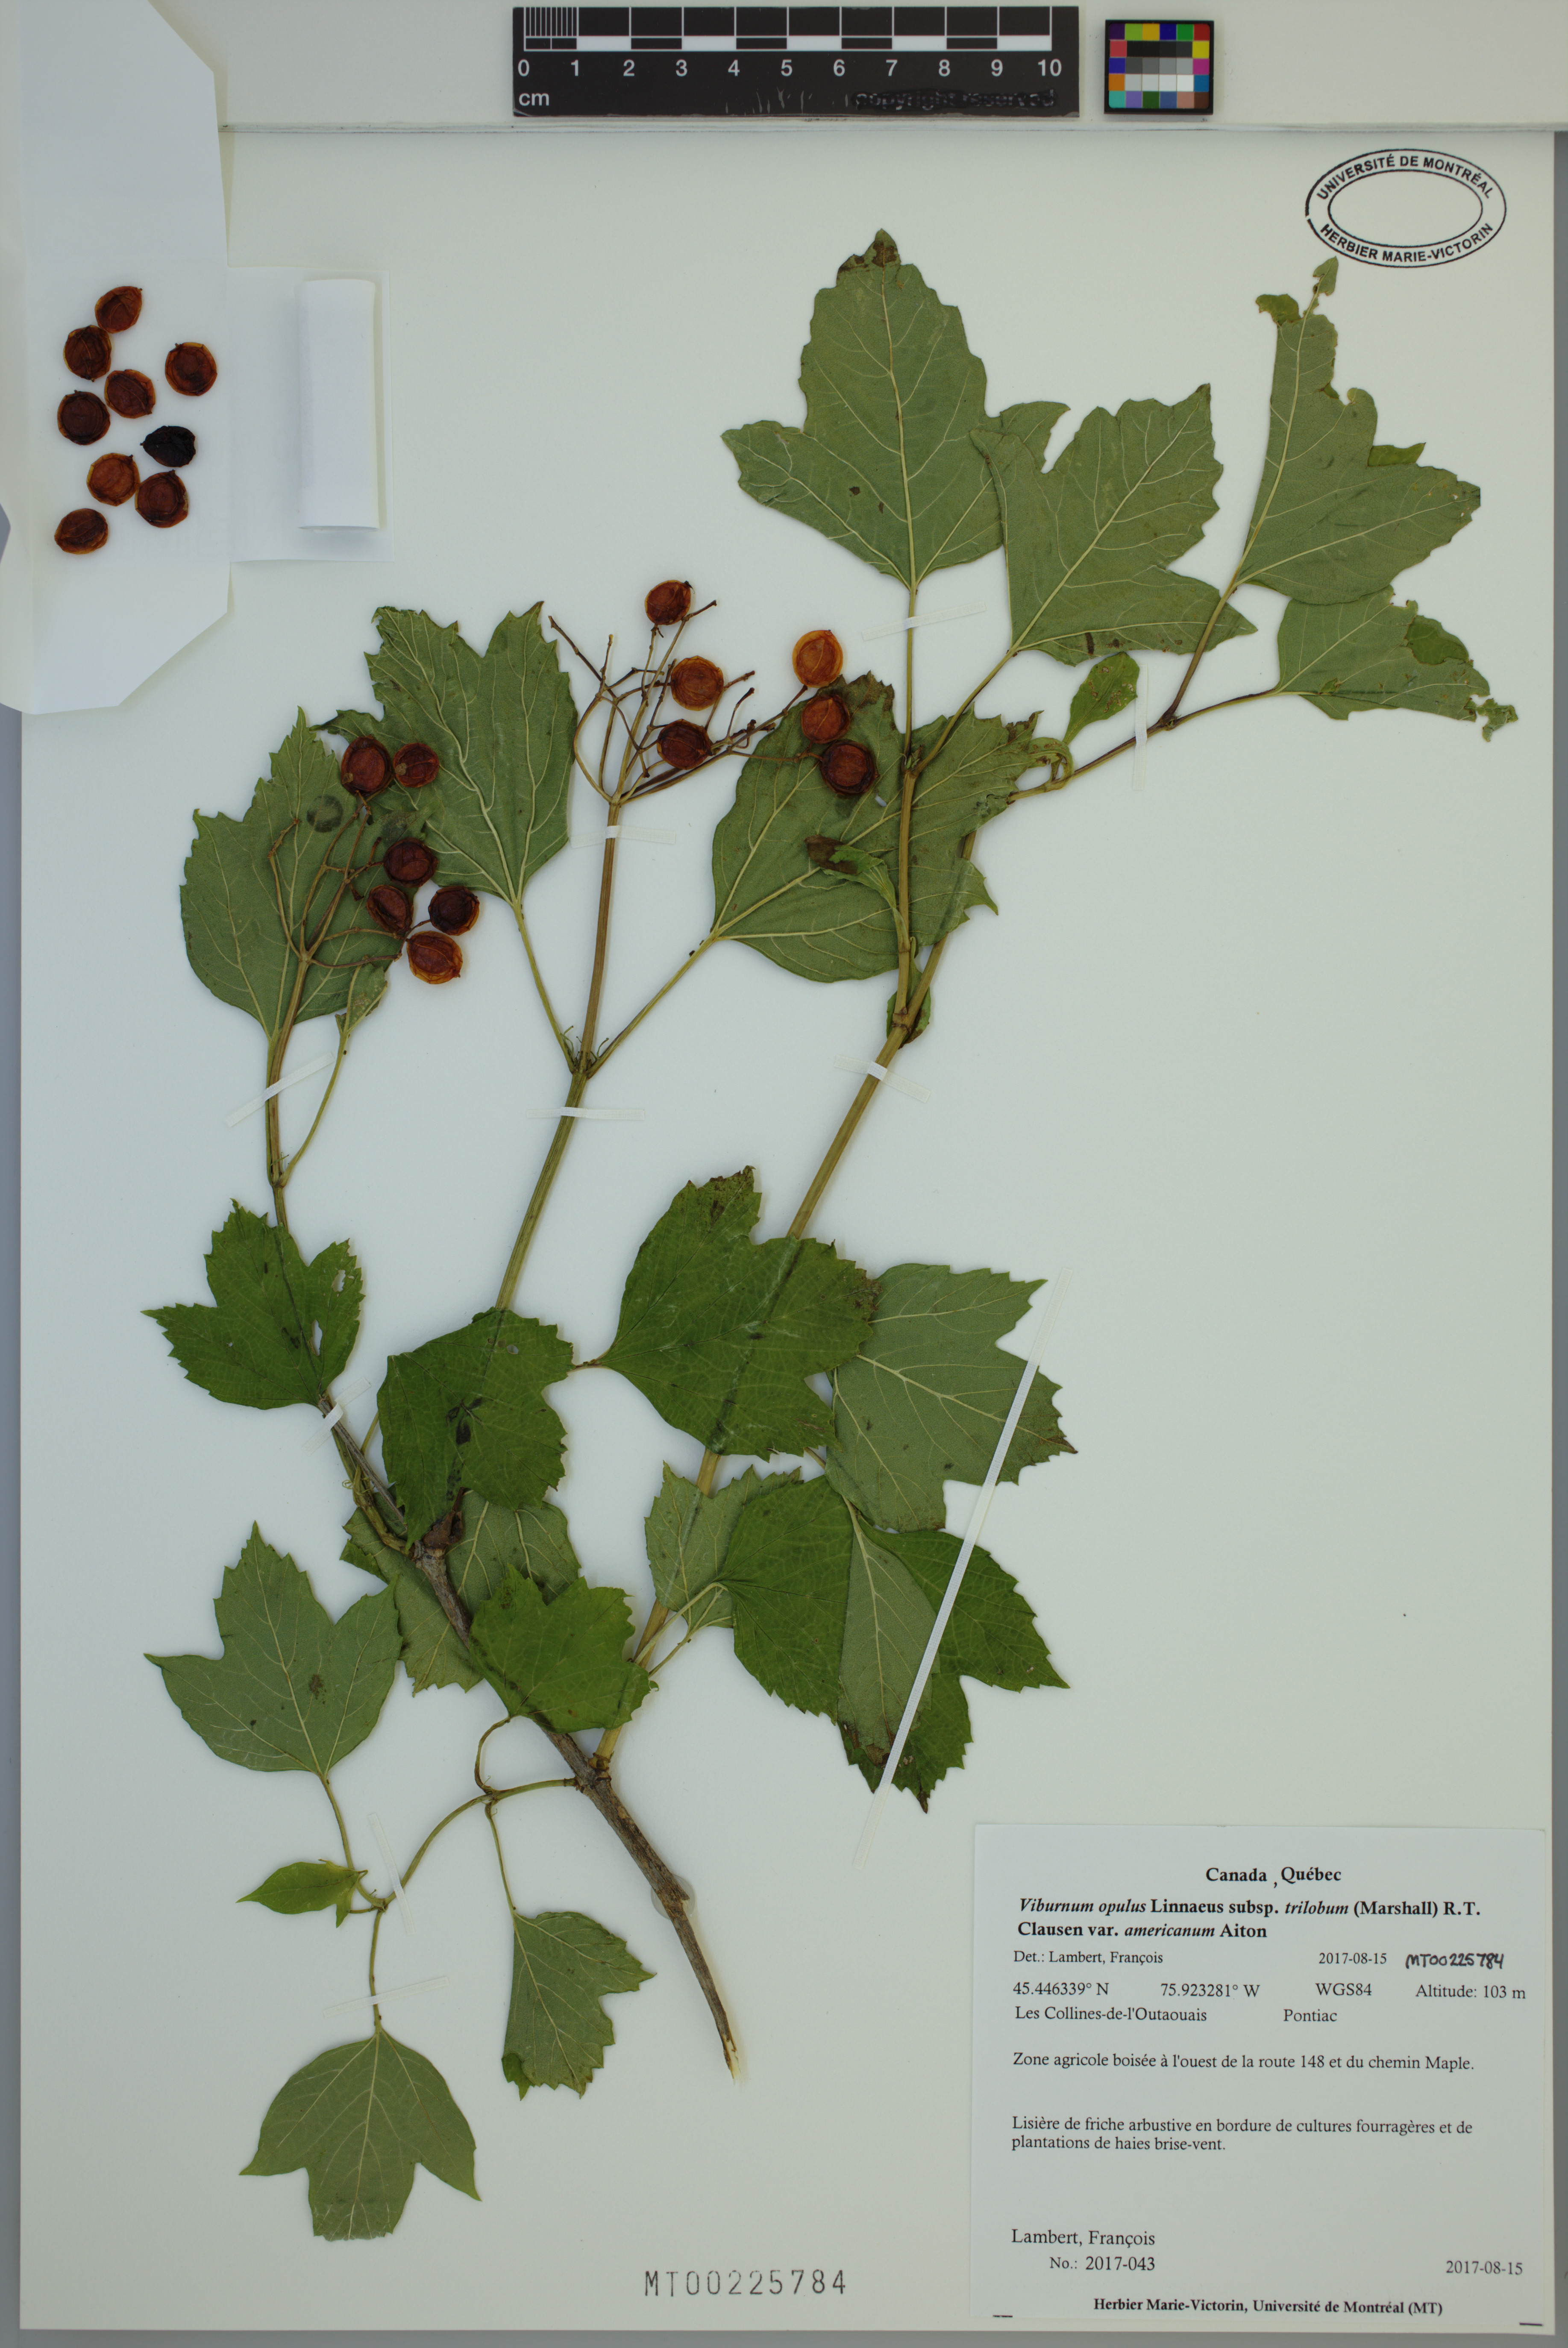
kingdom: Plantae
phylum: Tracheophyta
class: Magnoliopsida
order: Dipsacales
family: Viburnaceae
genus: Viburnum
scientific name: Viburnum trilobum
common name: American cranberrybush
